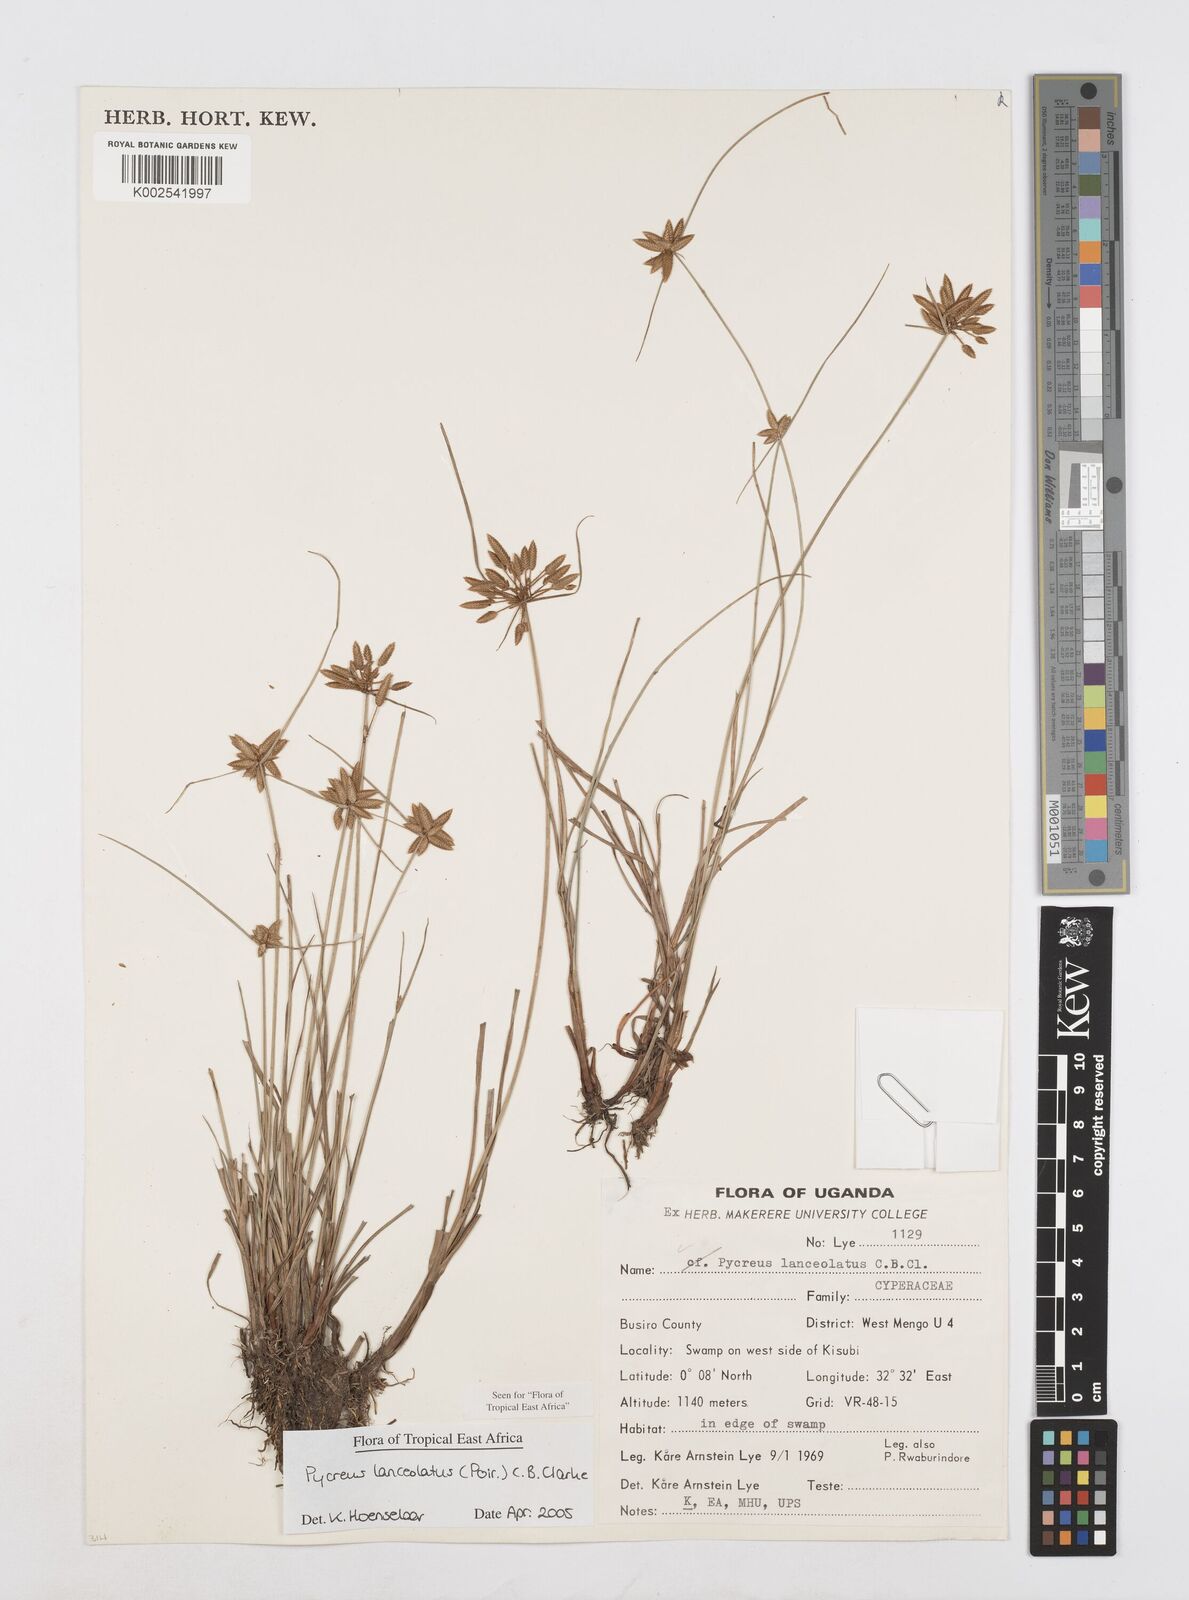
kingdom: Plantae
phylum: Tracheophyta
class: Liliopsida
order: Poales
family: Cyperaceae
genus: Cyperus
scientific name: Cyperus lanceolatus
